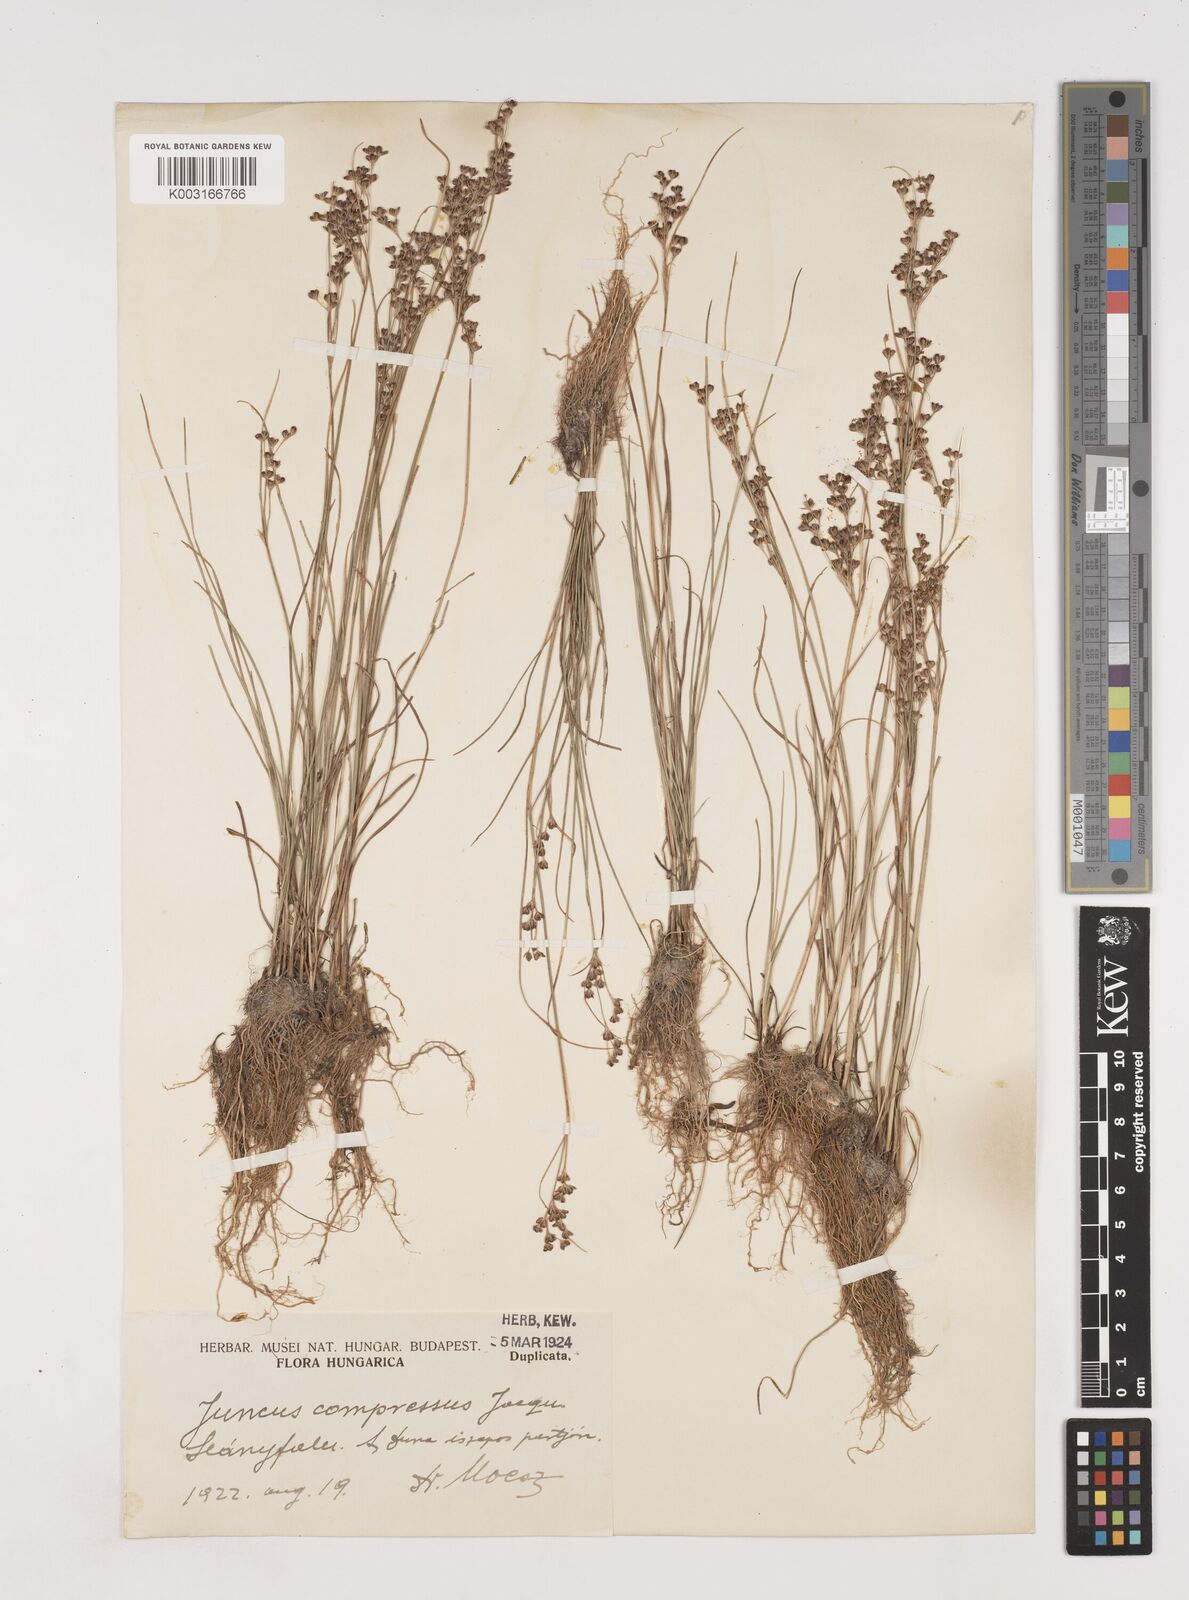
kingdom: Plantae
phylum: Tracheophyta
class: Liliopsida
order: Poales
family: Juncaceae
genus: Juncus
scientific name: Juncus
